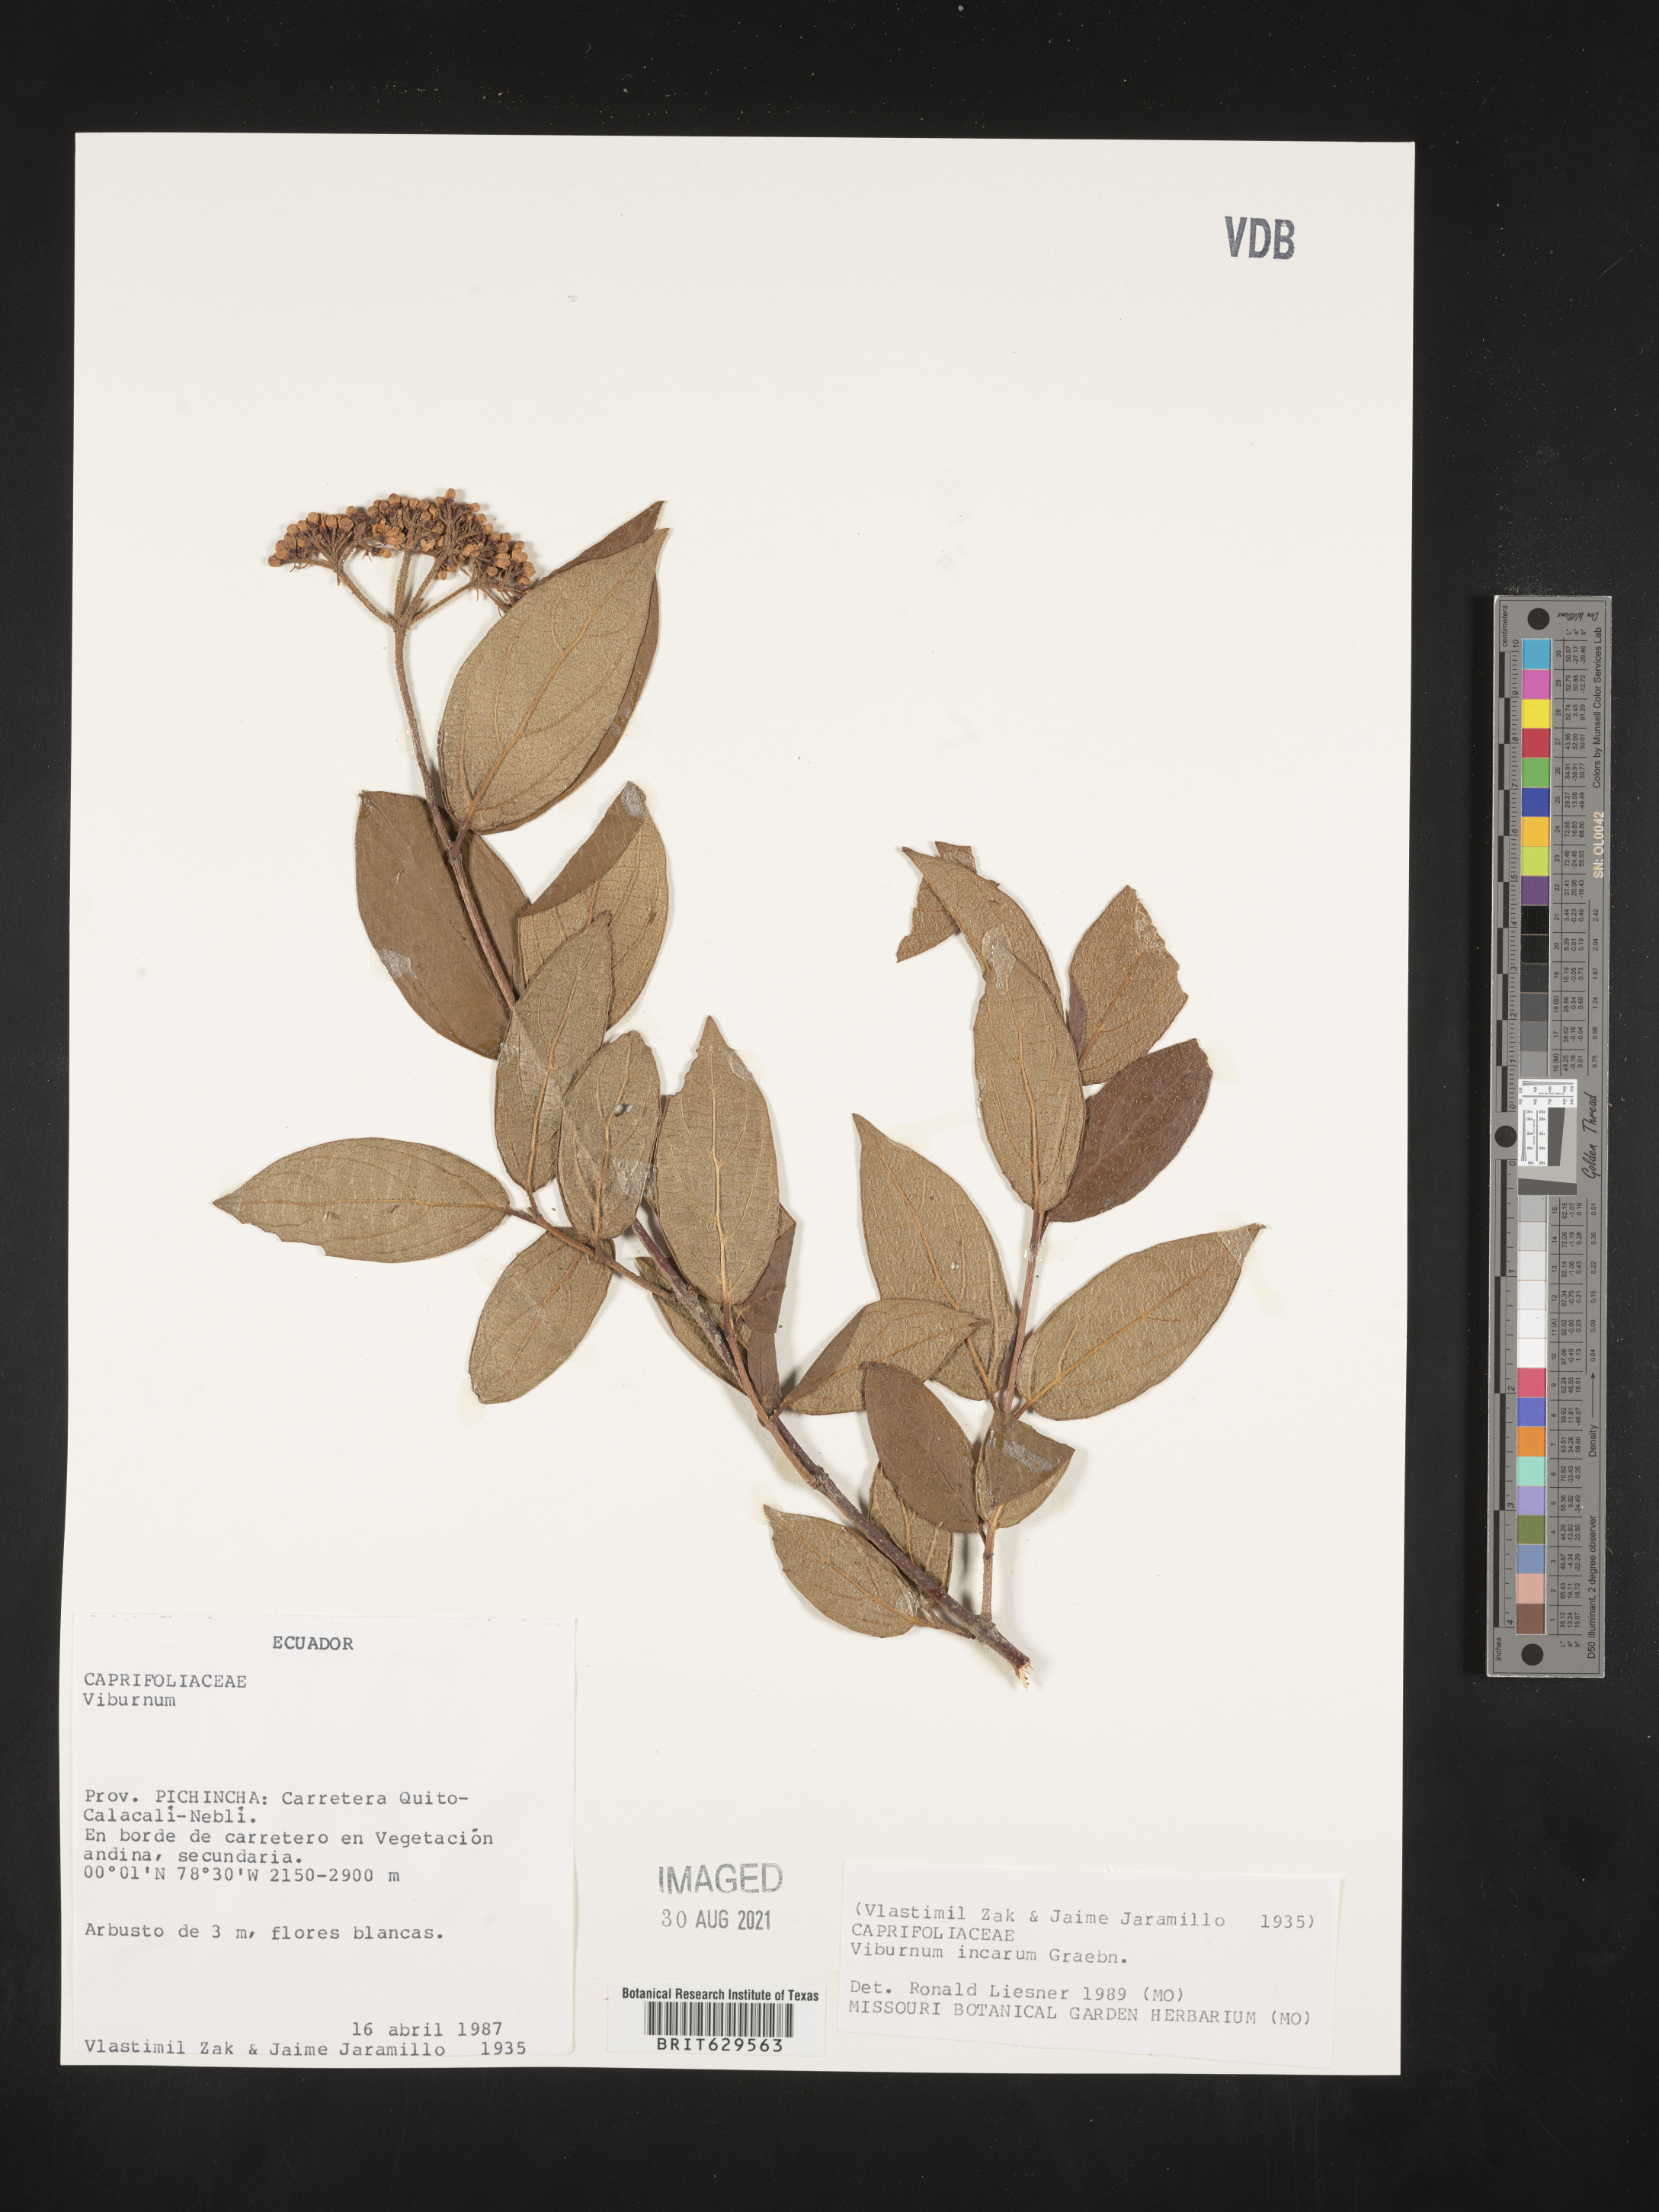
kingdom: Plantae
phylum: Tracheophyta
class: Magnoliopsida
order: Dipsacales
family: Viburnaceae
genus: Viburnum
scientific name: Viburnum hallii
